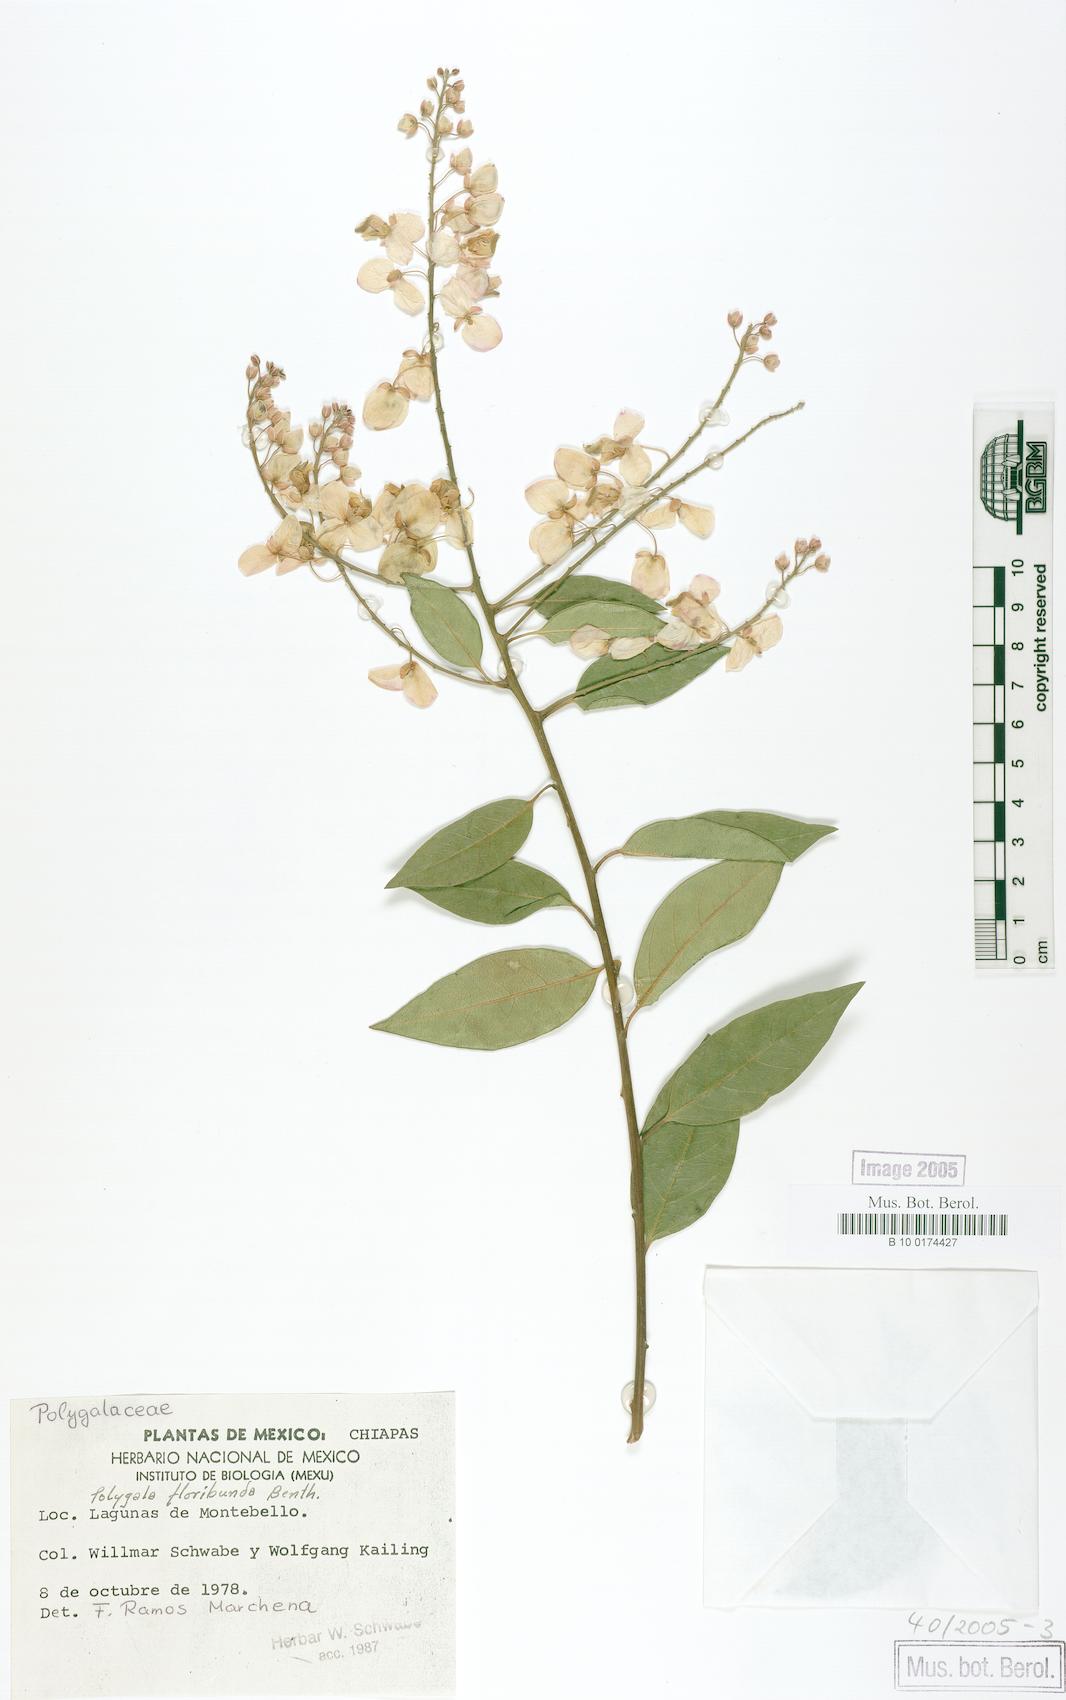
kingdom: Plantae
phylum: Tracheophyta
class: Magnoliopsida
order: Fabales
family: Polygalaceae
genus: Asemeia
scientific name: Asemeia floribunda
